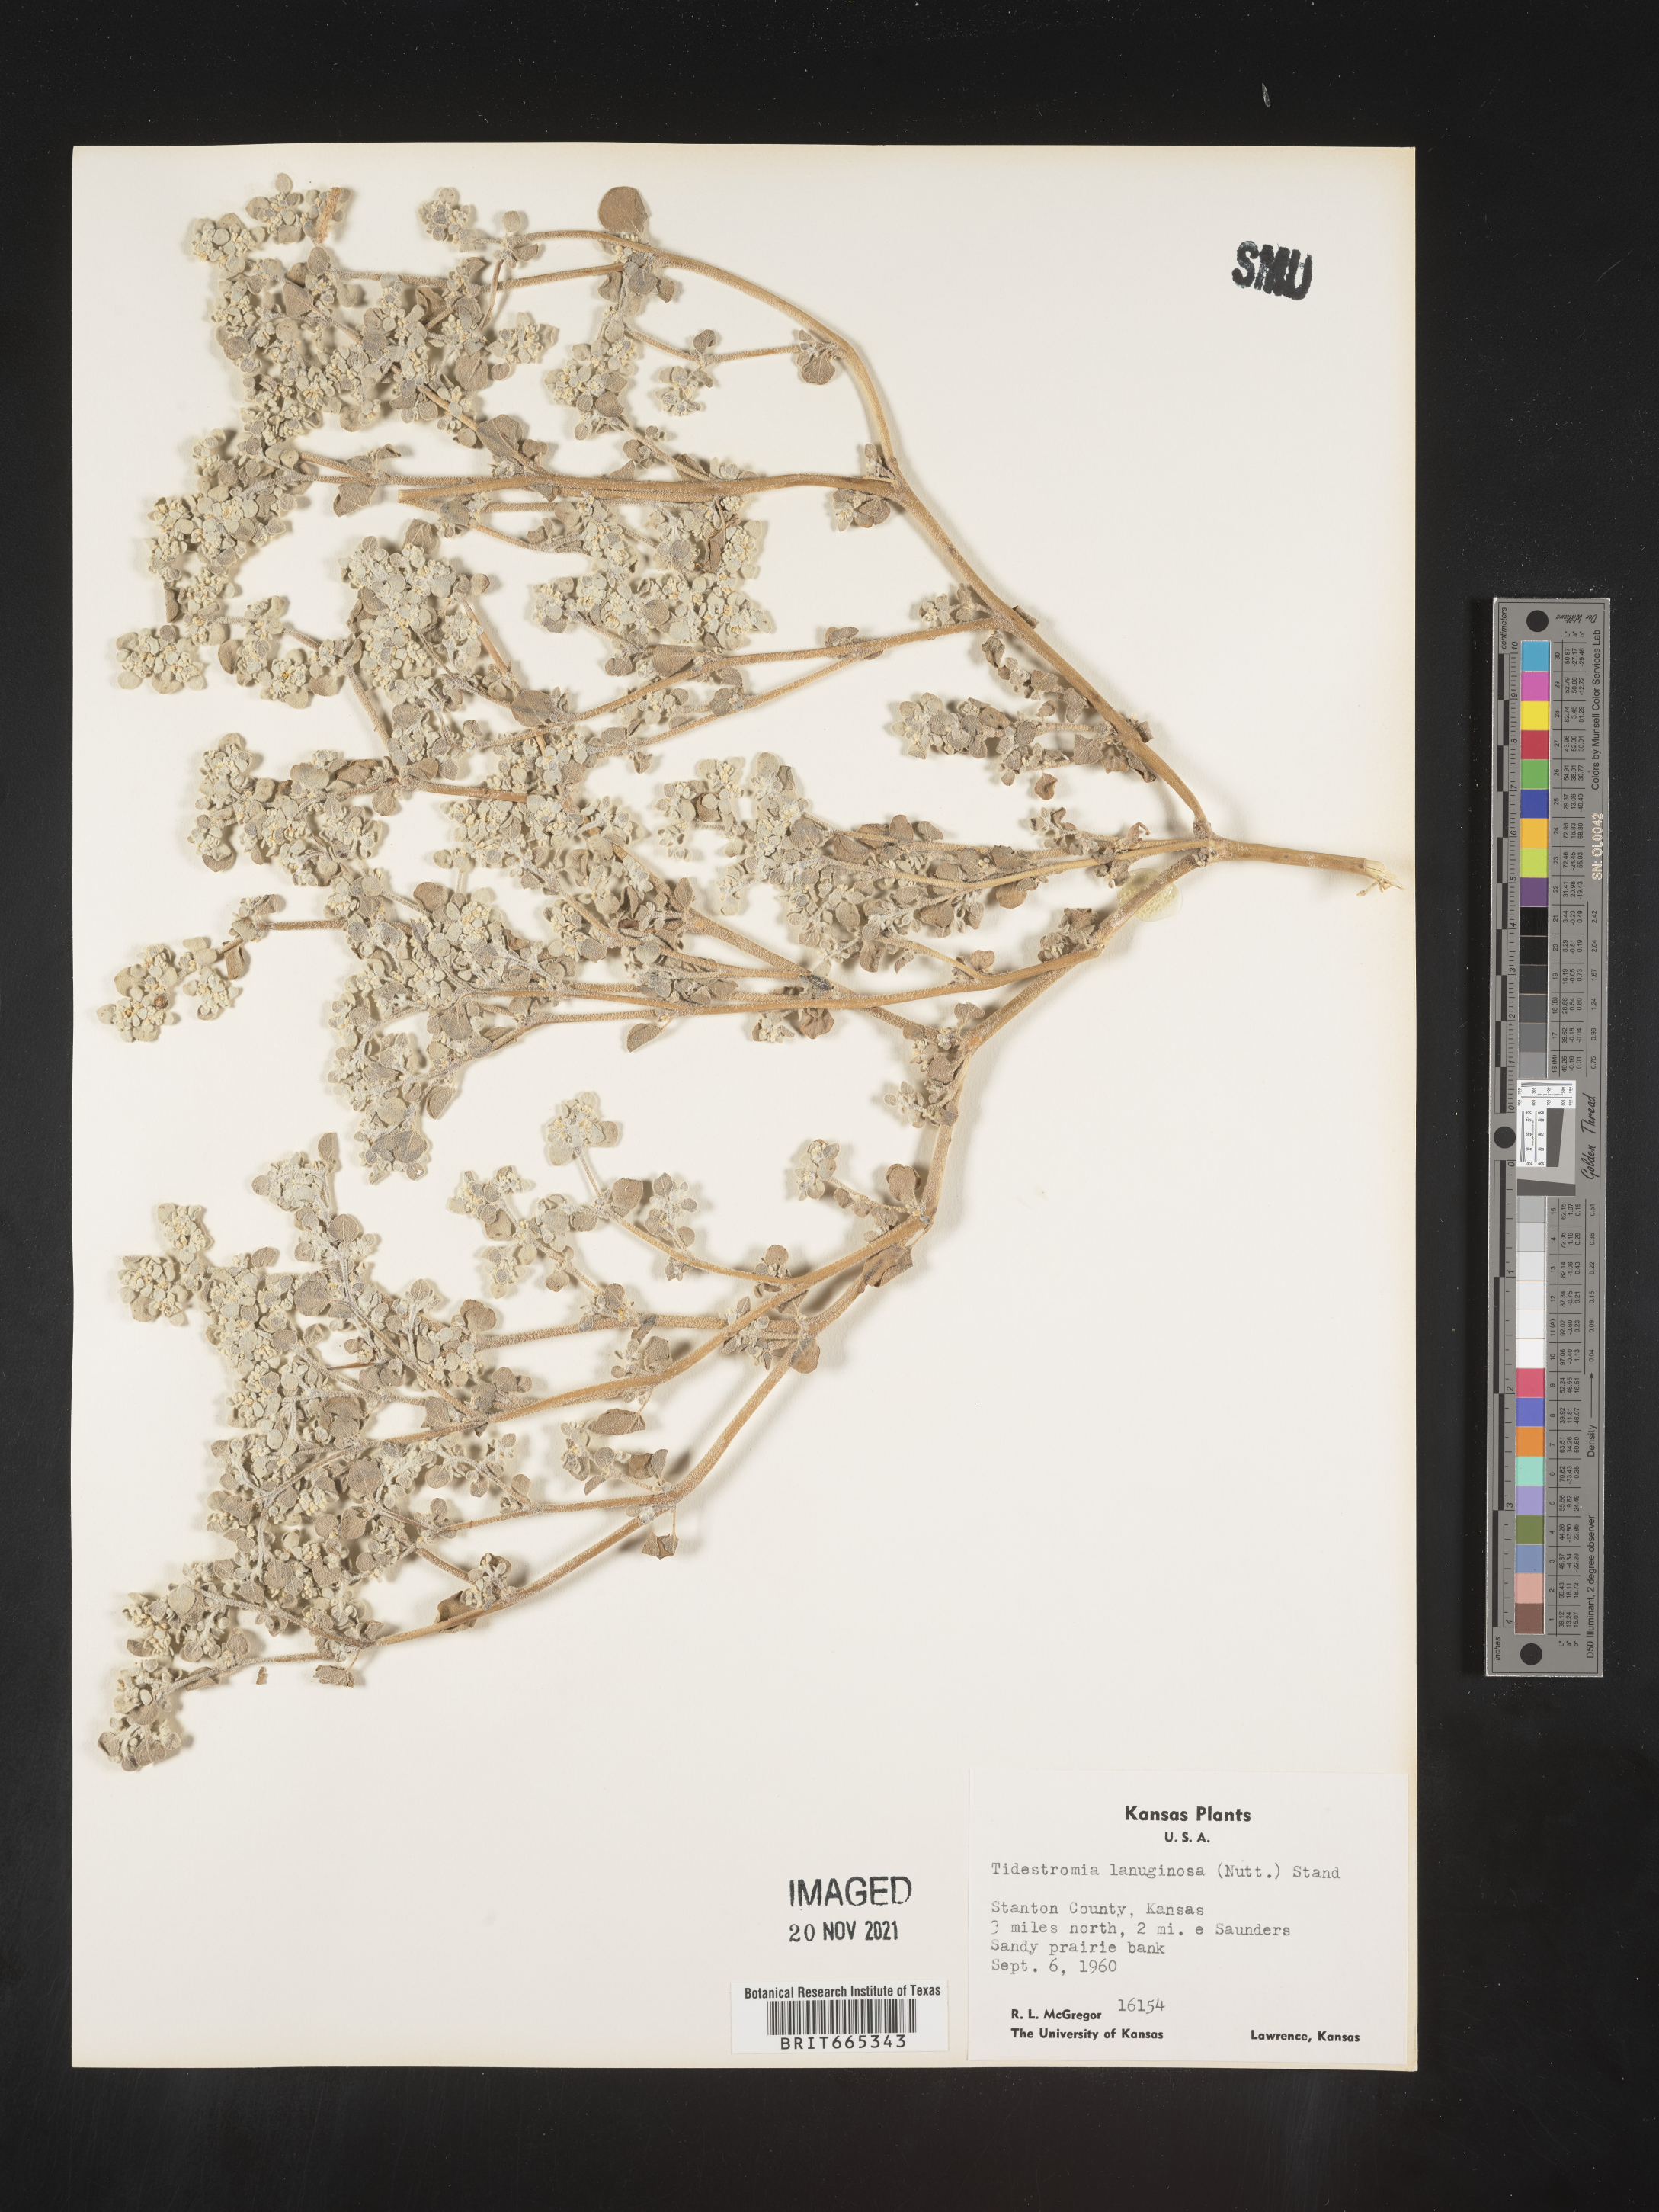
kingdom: Plantae
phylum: Tracheophyta
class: Magnoliopsida
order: Caryophyllales
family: Amaranthaceae
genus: Tidestromia
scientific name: Tidestromia lanuginosa
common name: Woolly tidestromia
